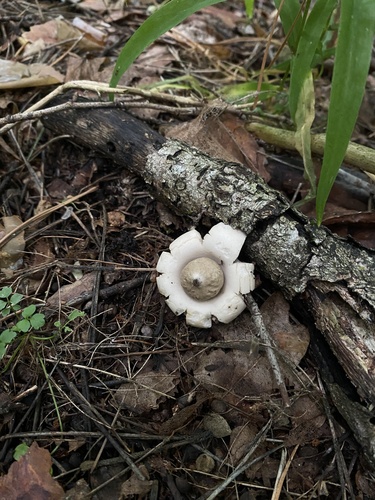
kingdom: Fungi
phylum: Basidiomycota
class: Agaricomycetes
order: Geastrales
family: Geastraceae
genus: Geastrum
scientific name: Geastrum saccatum
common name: Rounded earthstar
